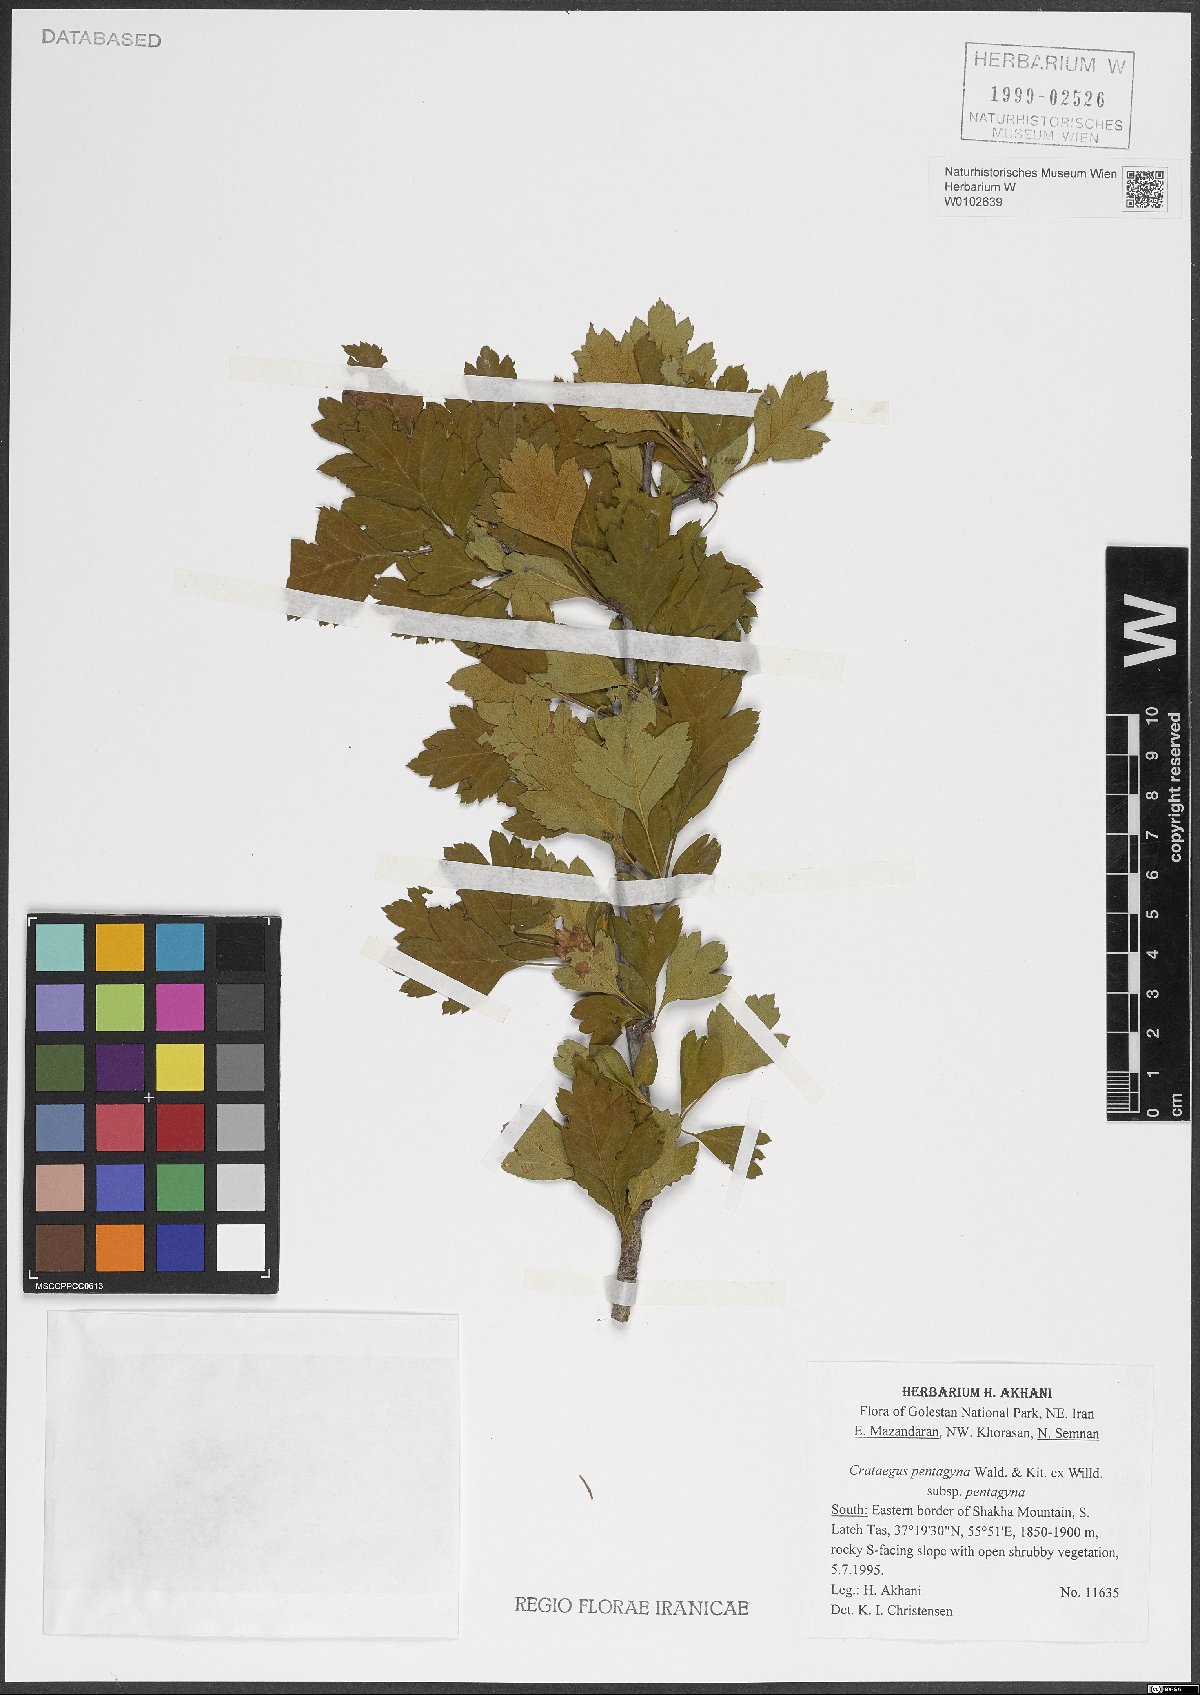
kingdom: Plantae
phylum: Tracheophyta
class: Magnoliopsida
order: Rosales
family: Rosaceae
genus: Crataegus
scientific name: Crataegus pentagyna
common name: Small-flowered black hawthorn
